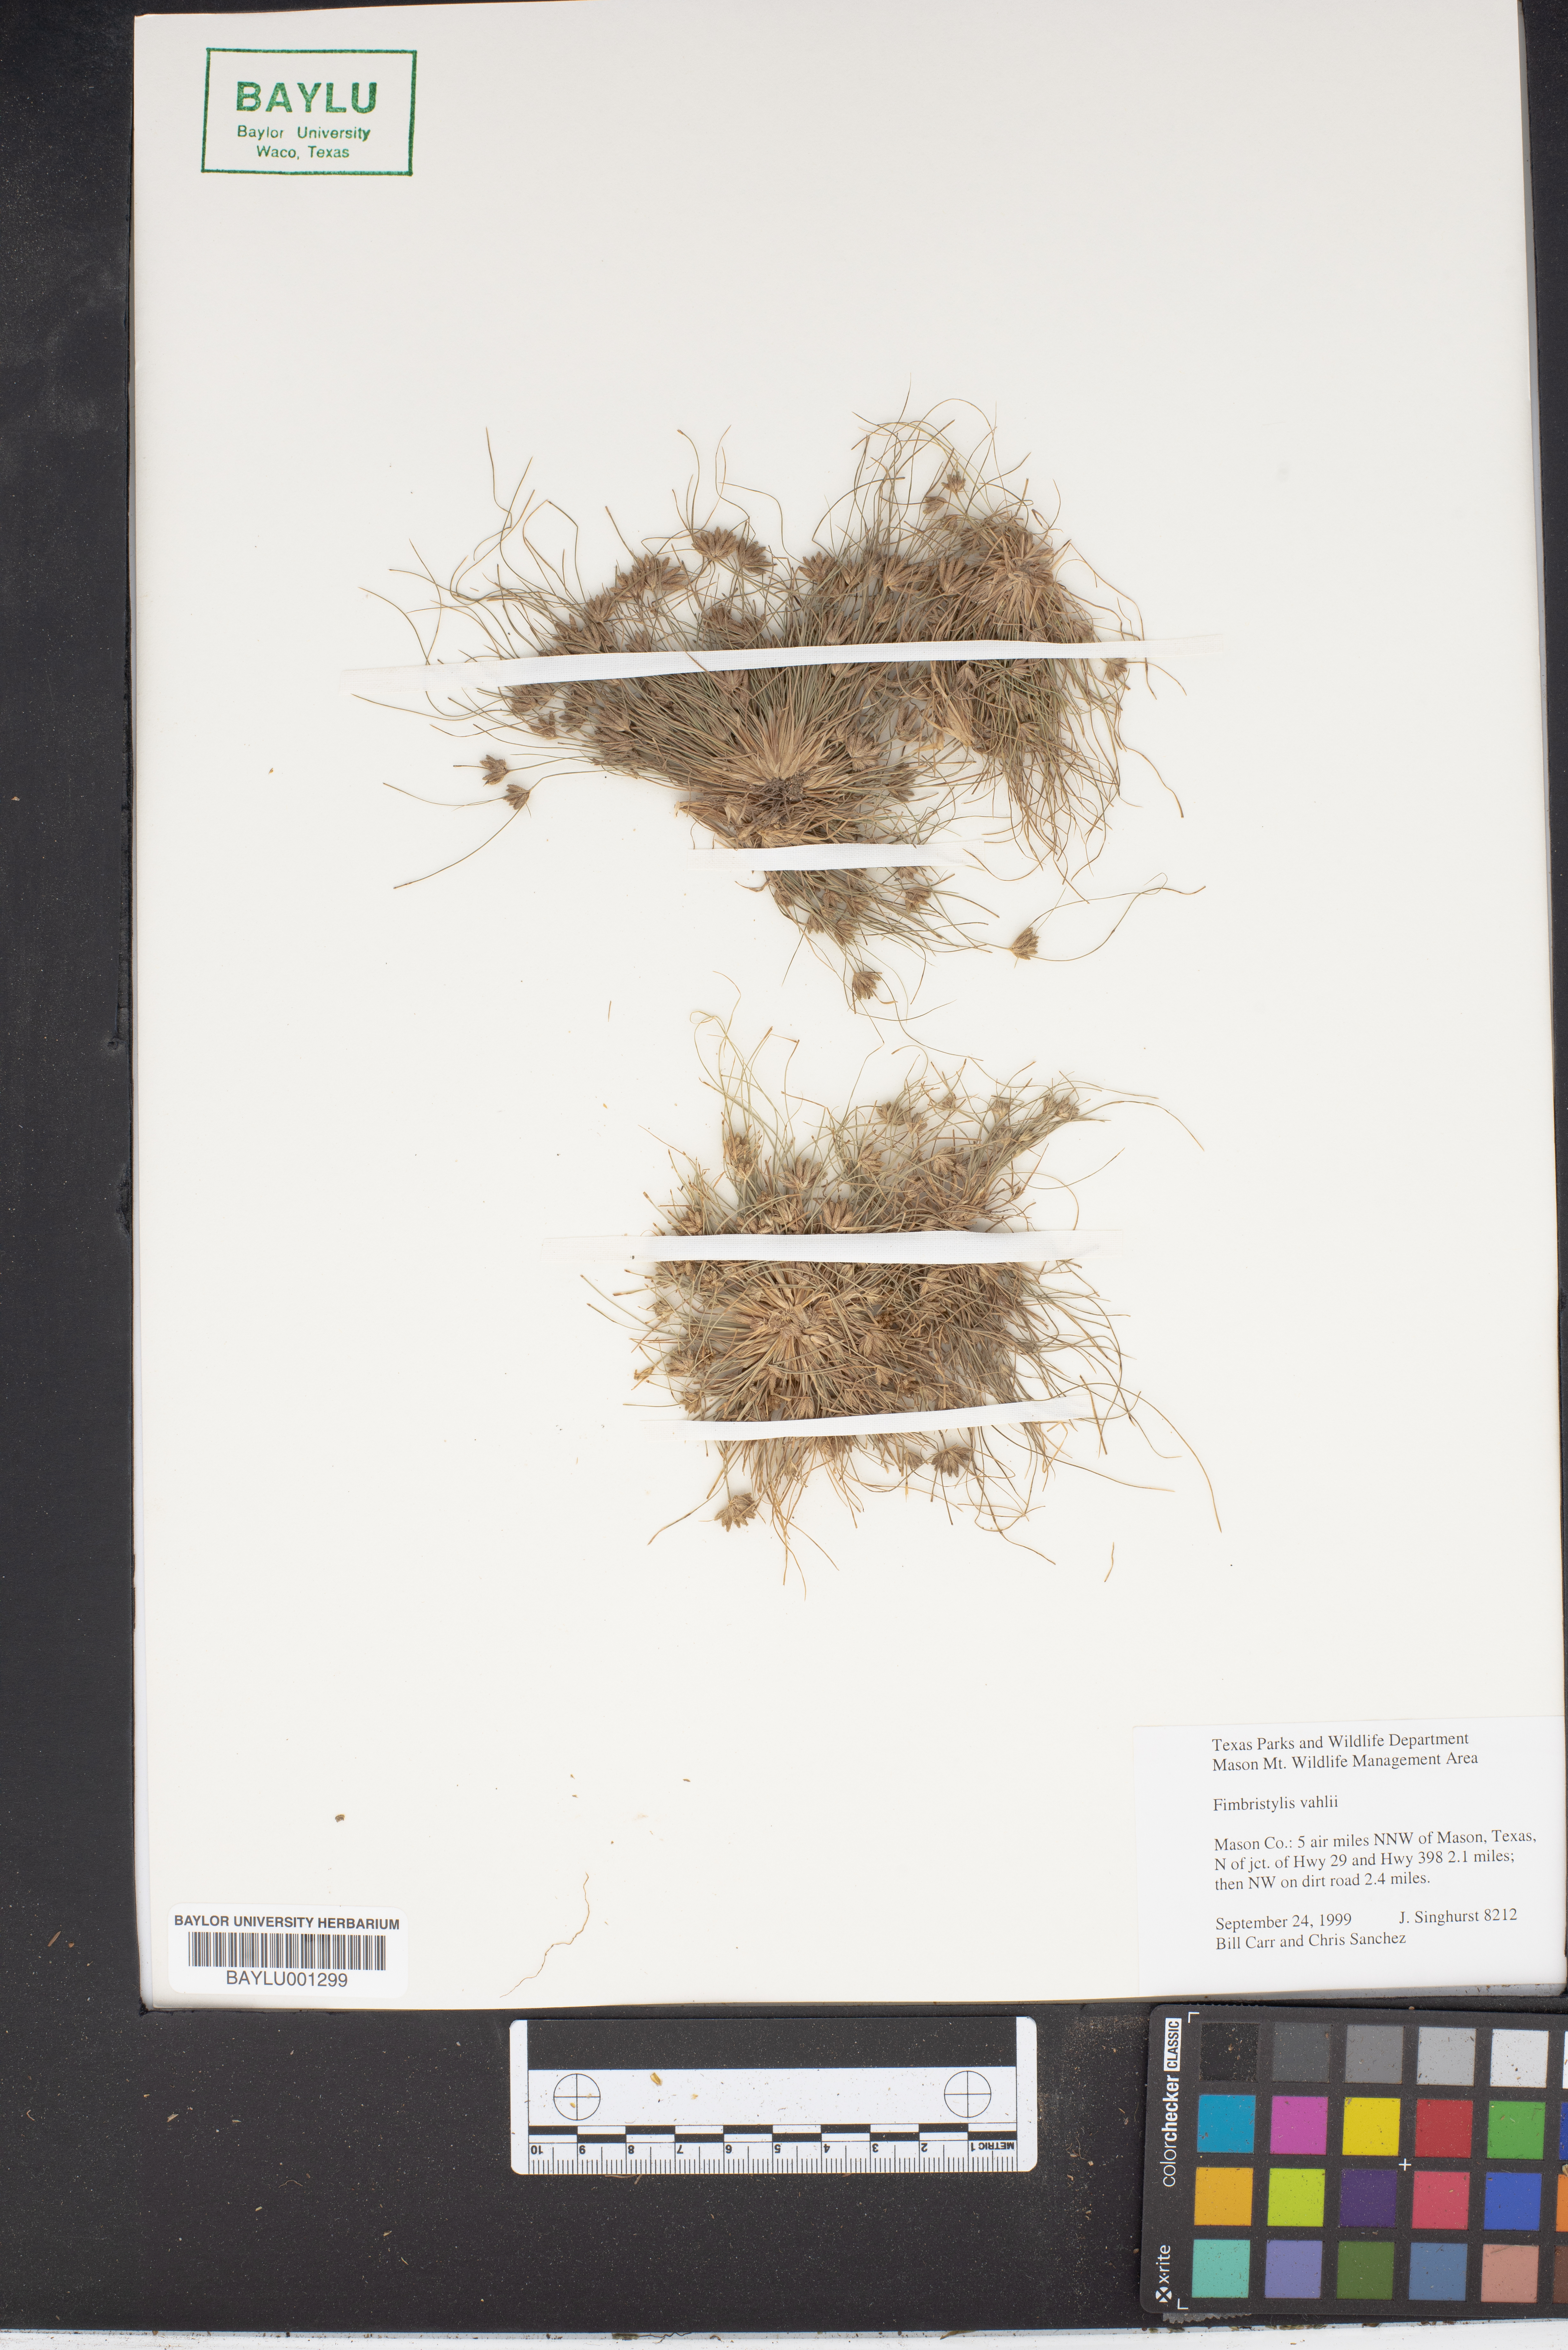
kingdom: Plantae
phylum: Tracheophyta
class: Liliopsida
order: Poales
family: Cyperaceae
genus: Fimbristylis
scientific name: Fimbristylis vahlii
